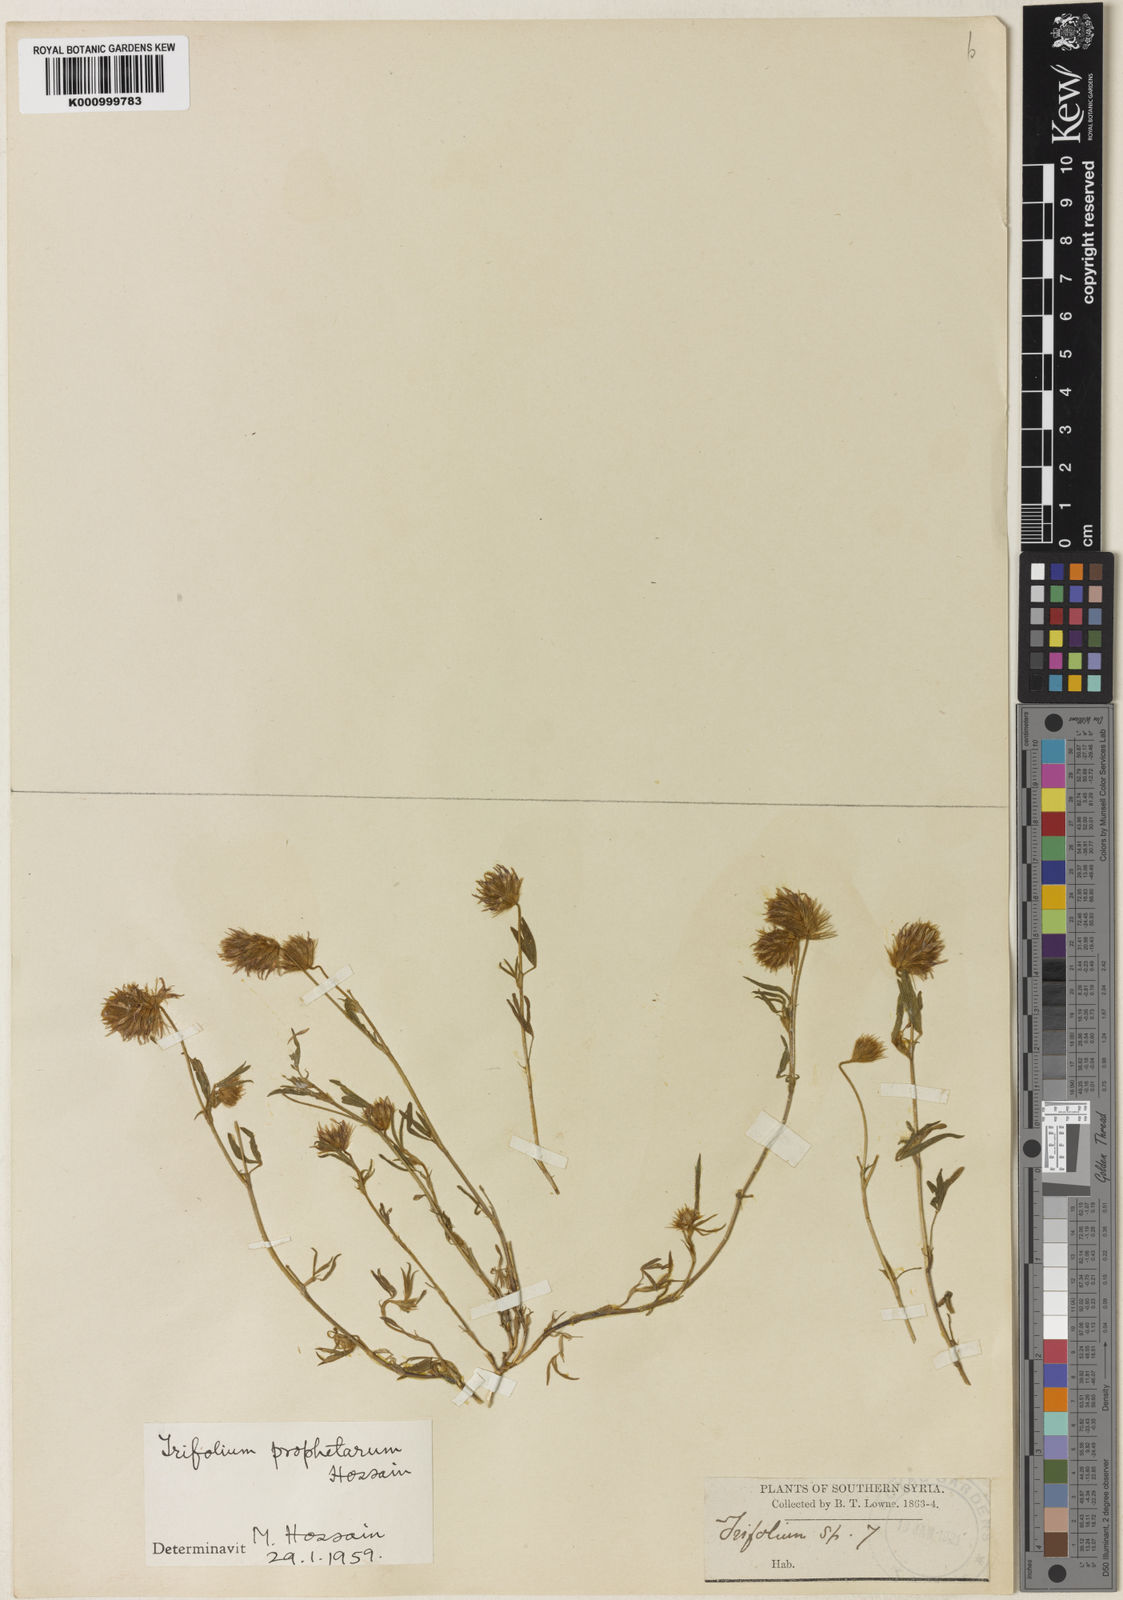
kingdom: Plantae
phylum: Tracheophyta
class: Magnoliopsida
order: Fabales
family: Fabaceae
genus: Trifolium
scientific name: Trifolium prophetarum
